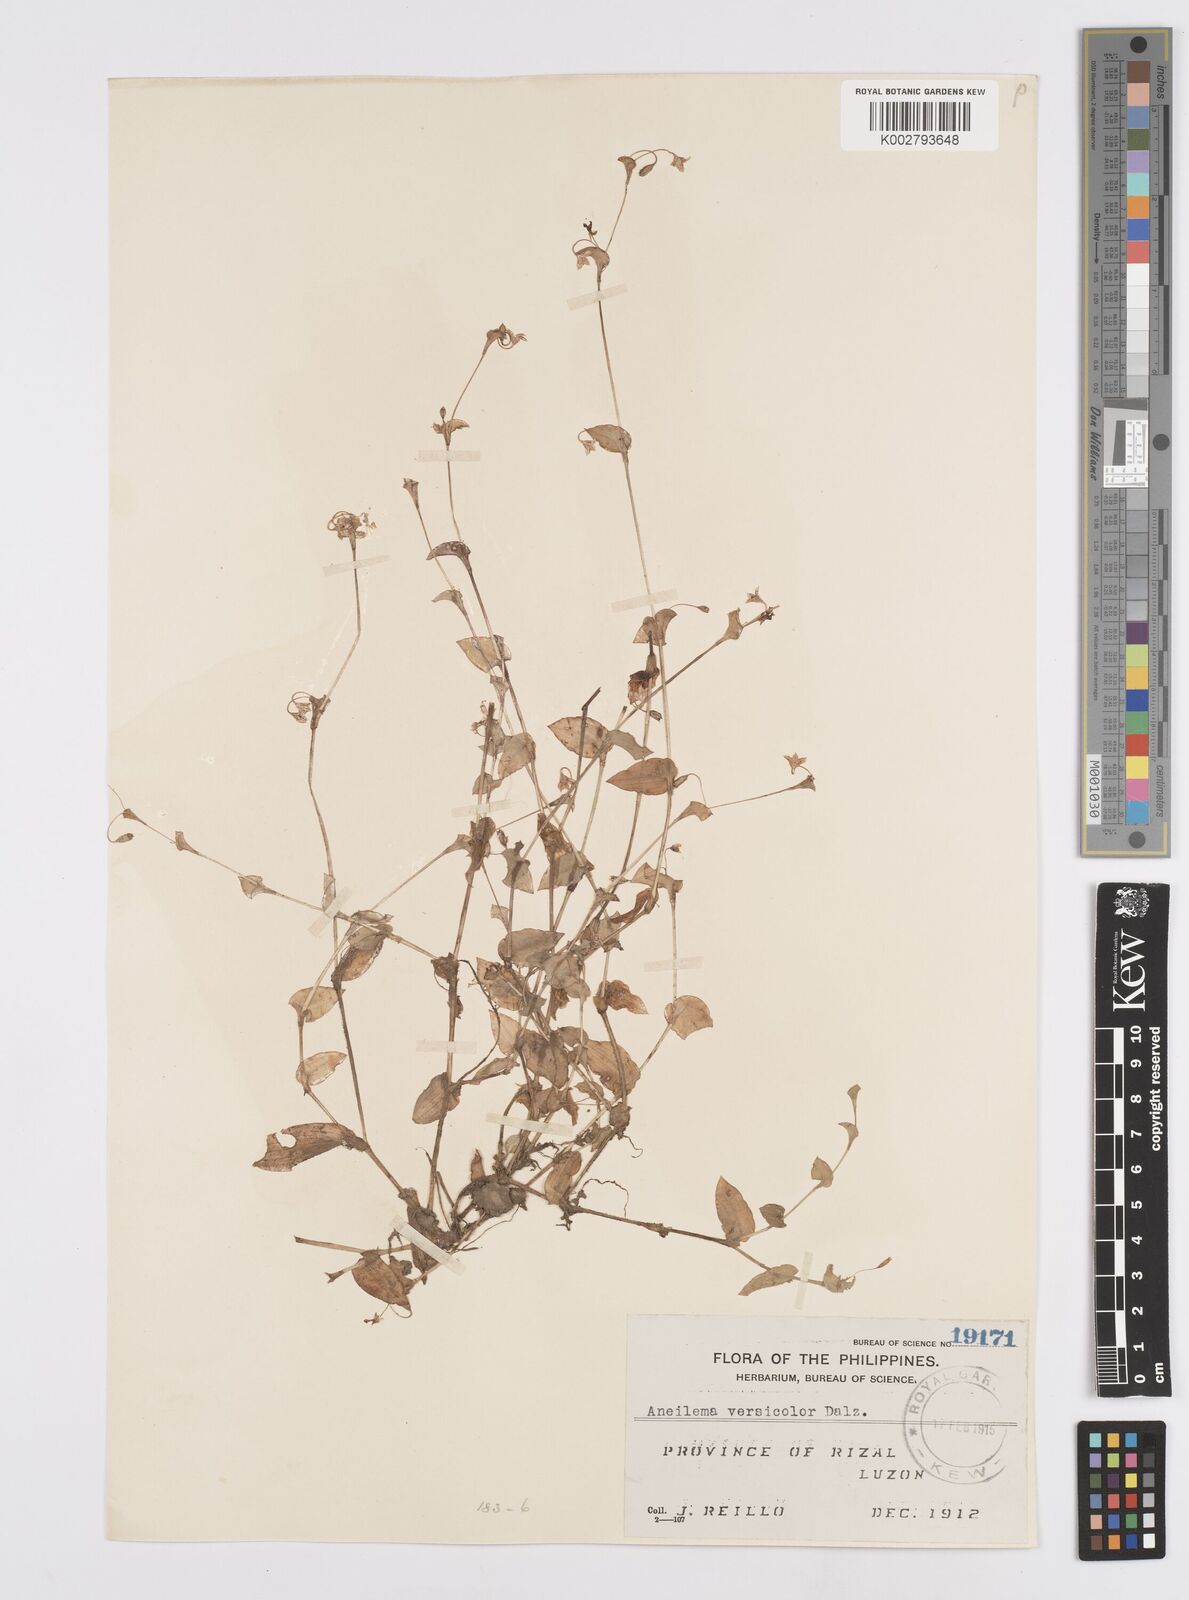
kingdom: Plantae
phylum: Tracheophyta
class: Liliopsida
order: Commelinales
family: Commelinaceae
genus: Murdannia
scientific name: Murdannia versicolor
